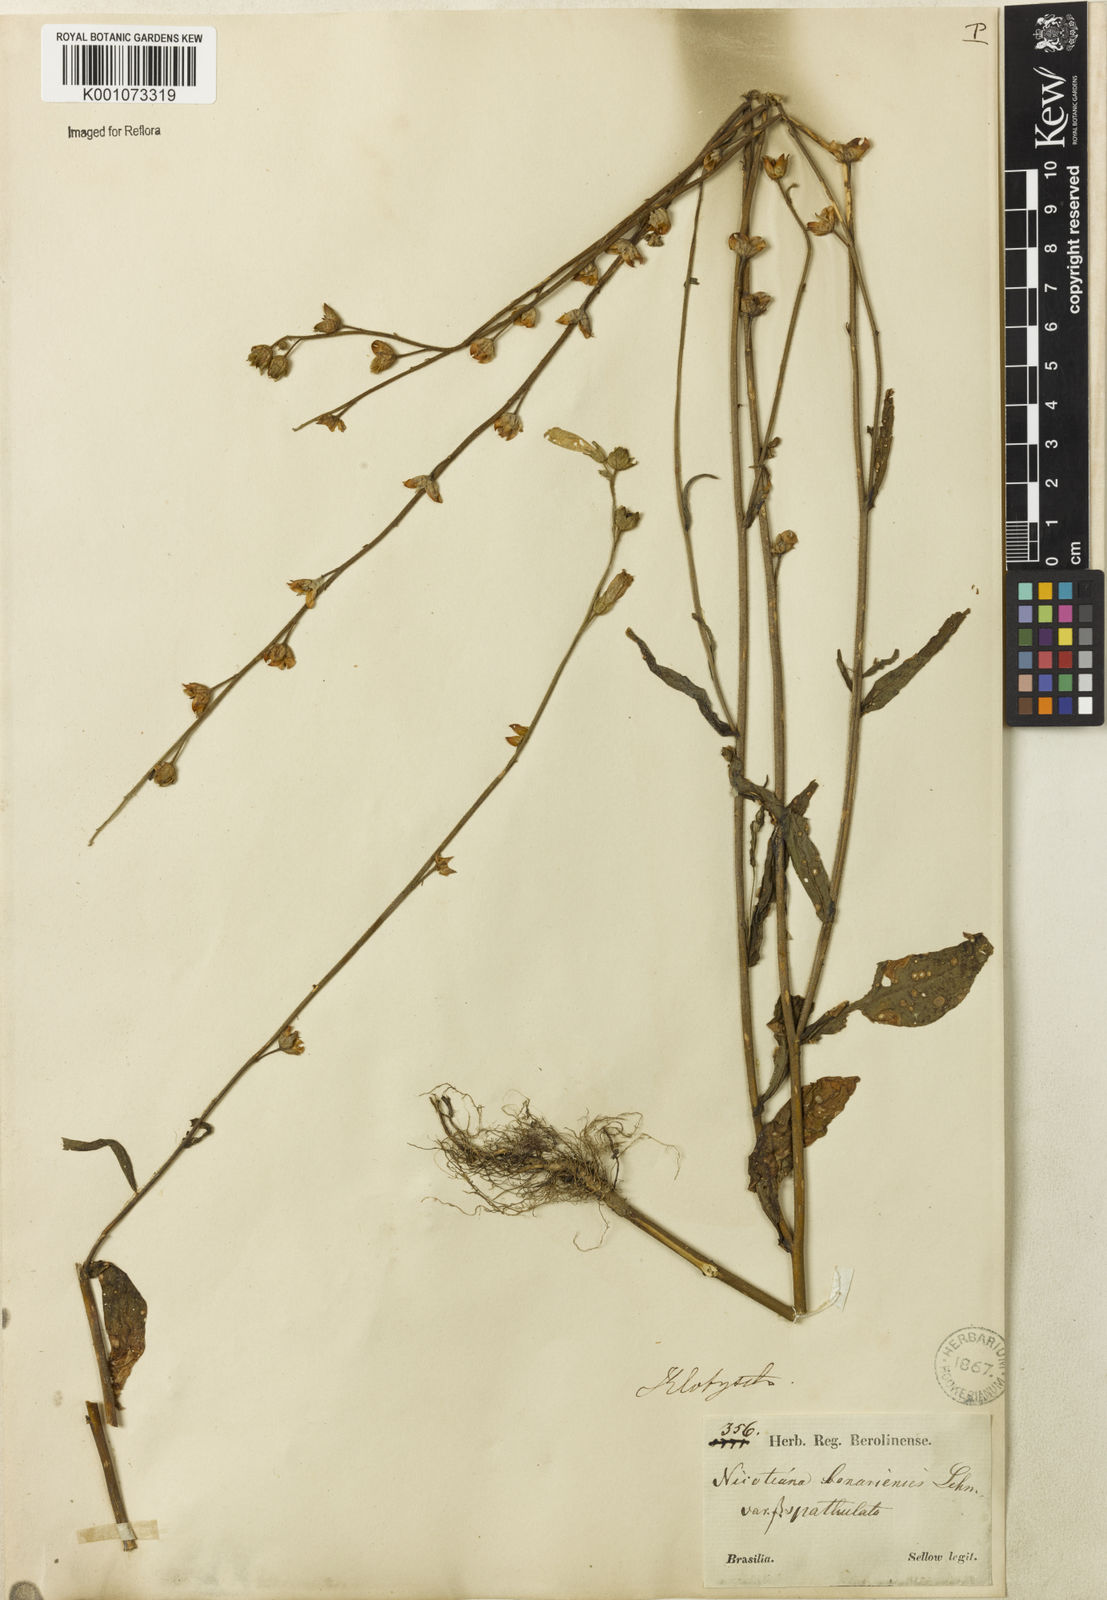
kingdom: Plantae
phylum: Tracheophyta
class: Magnoliopsida
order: Solanales
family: Solanaceae
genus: Nicotiana
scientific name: Nicotiana bonariensis
